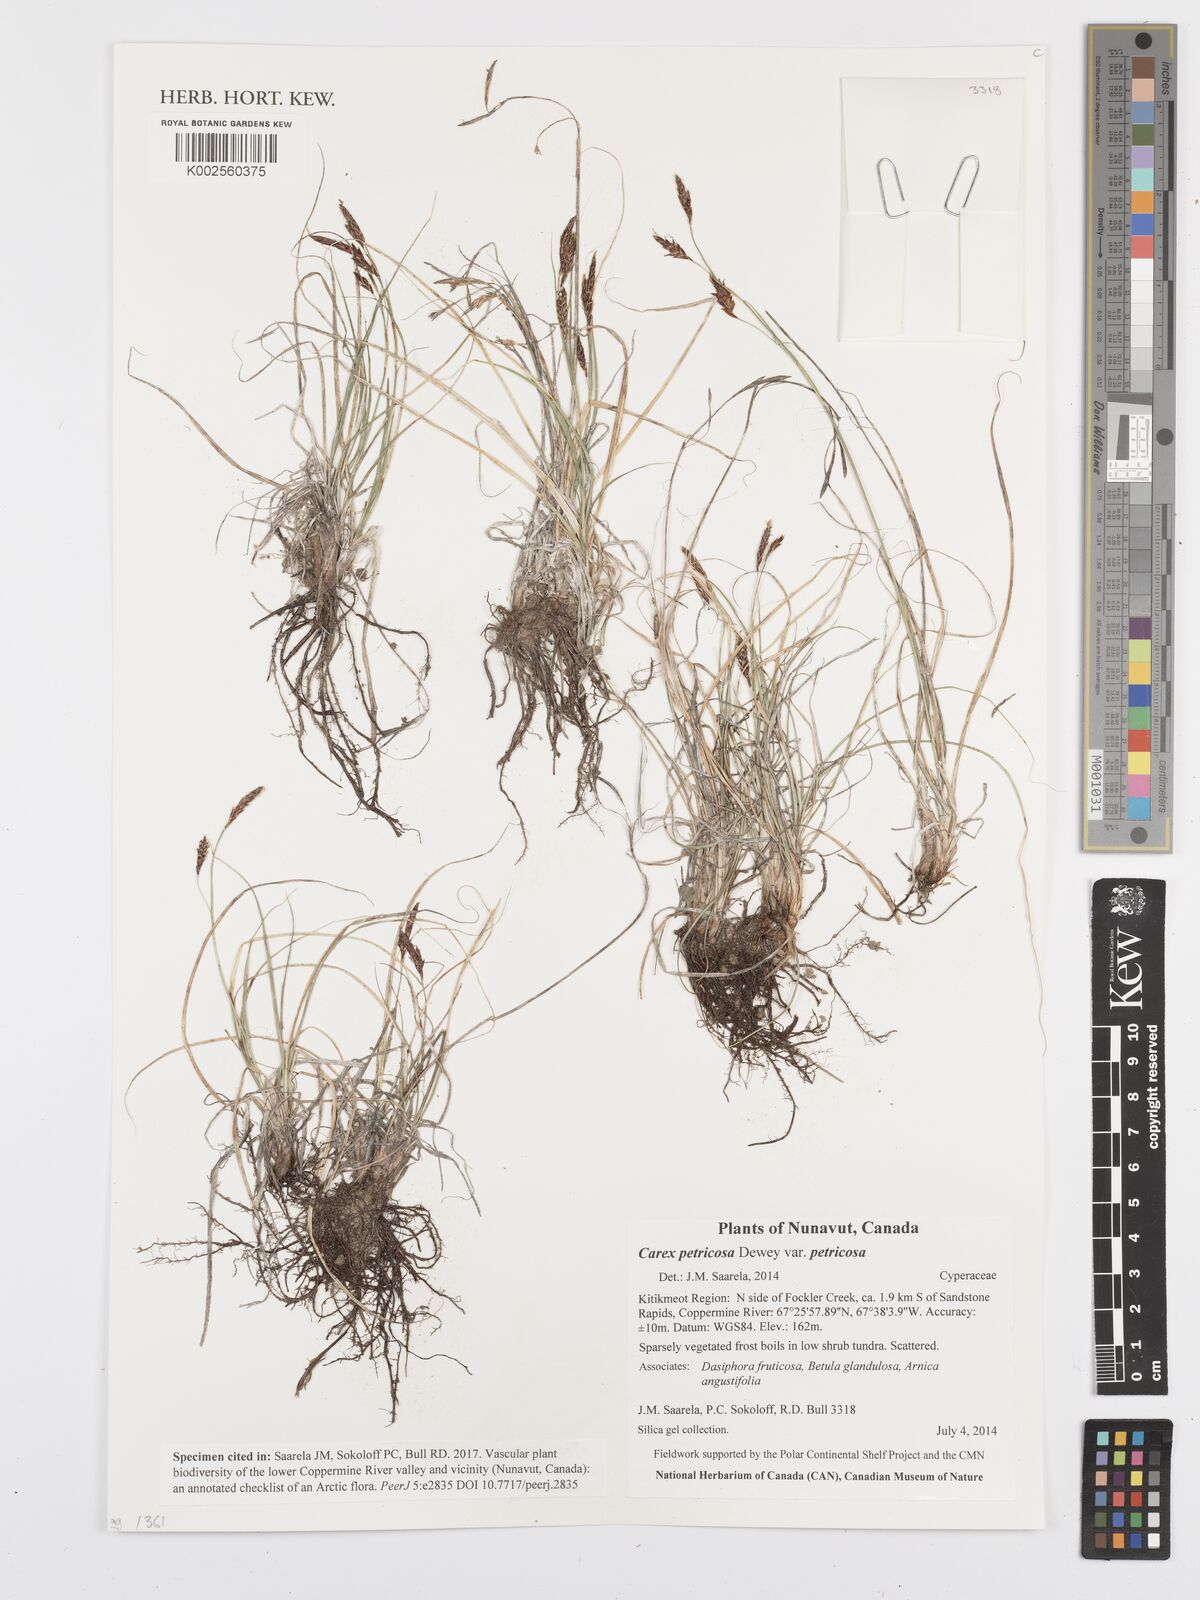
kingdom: Plantae
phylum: Tracheophyta
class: Liliopsida
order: Poales
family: Cyperaceae
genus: Carex
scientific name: Carex petricosa
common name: Rock sedge
